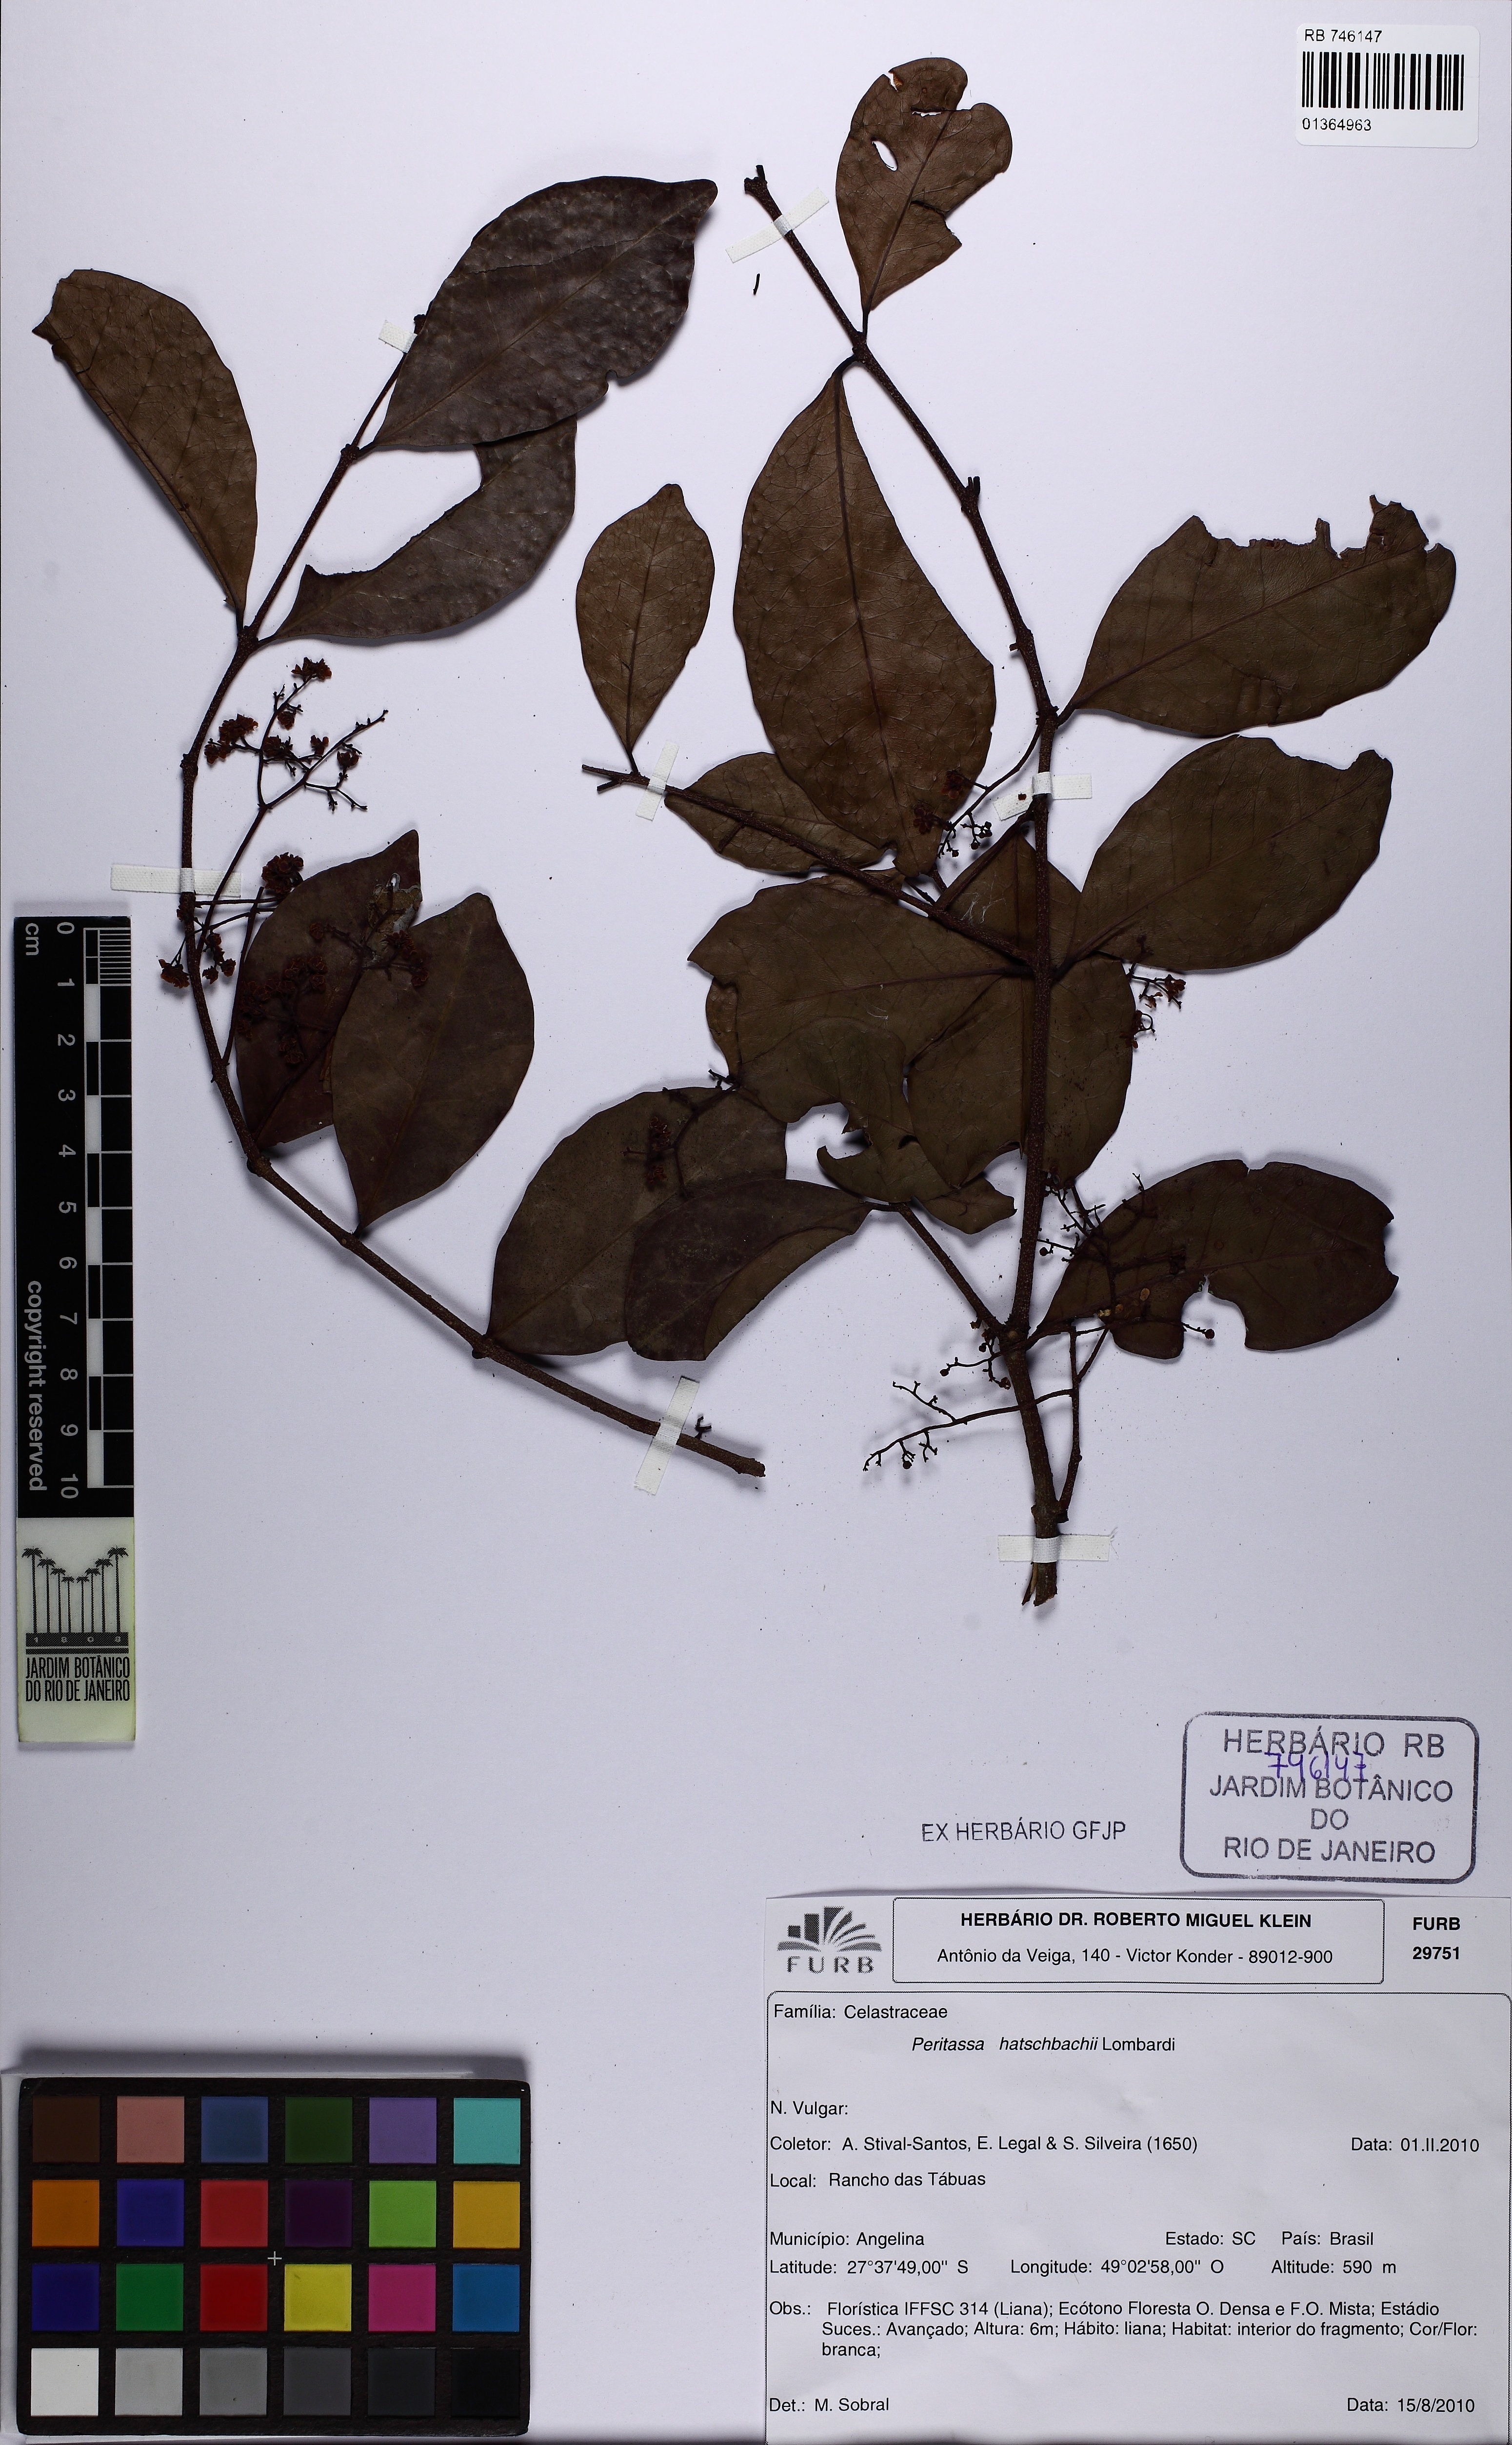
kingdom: Plantae
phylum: Tracheophyta
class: Magnoliopsida
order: Celastrales
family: Celastraceae
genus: Peritassa
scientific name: Peritassa hatschbachii
